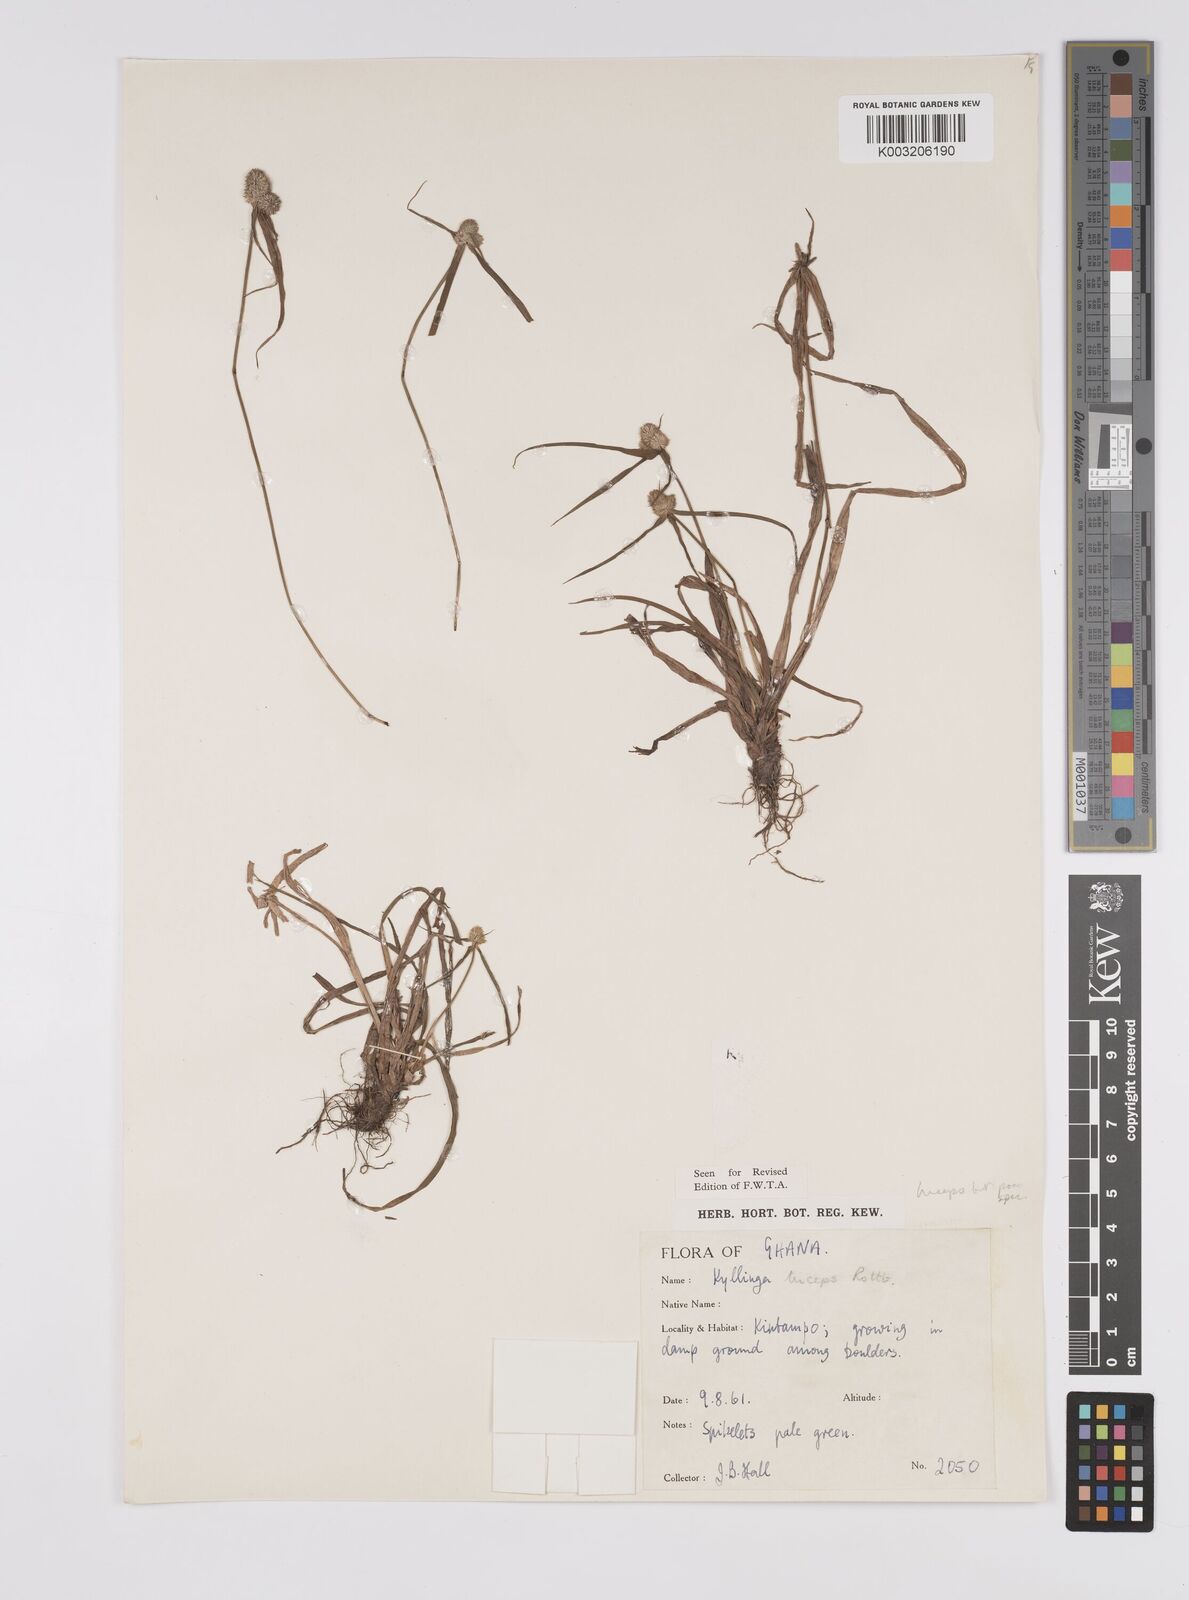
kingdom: Plantae
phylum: Tracheophyta
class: Liliopsida
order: Poales
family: Cyperaceae
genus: Cyperus
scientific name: Cyperus
